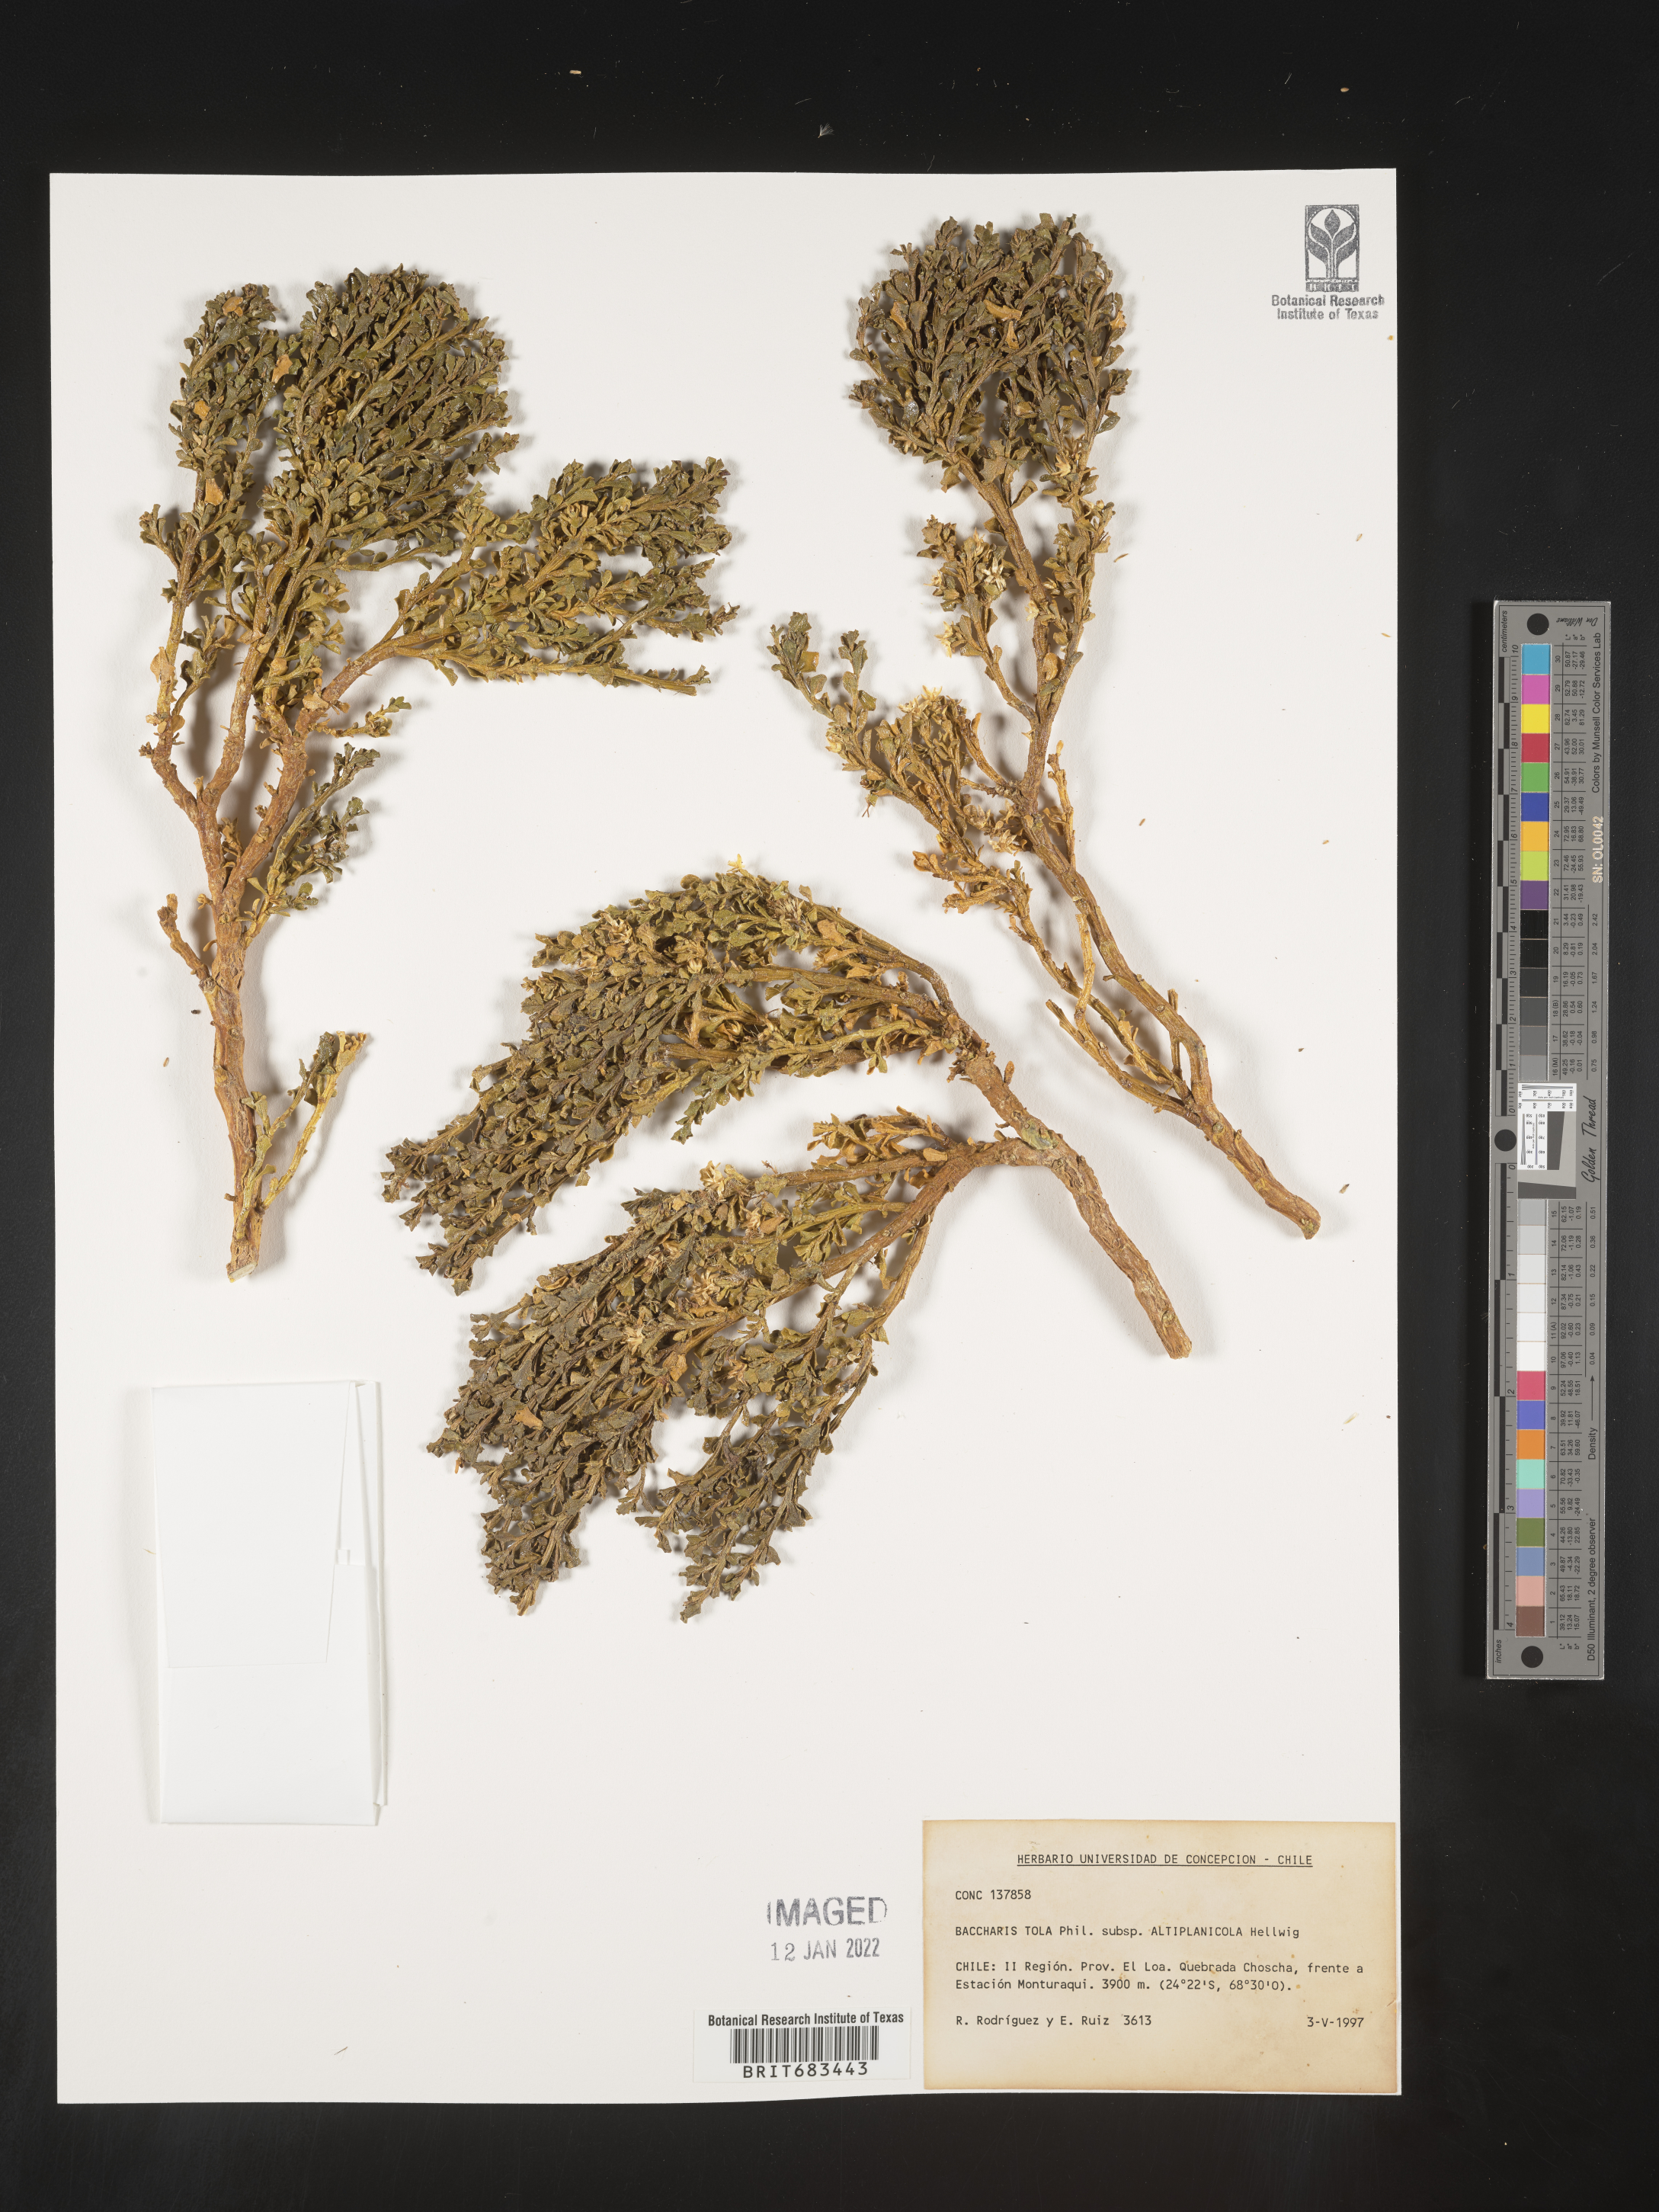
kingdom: Plantae
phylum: Tracheophyta
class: Magnoliopsida
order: Asterales
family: Asteraceae
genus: Baccharis
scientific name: Baccharis
